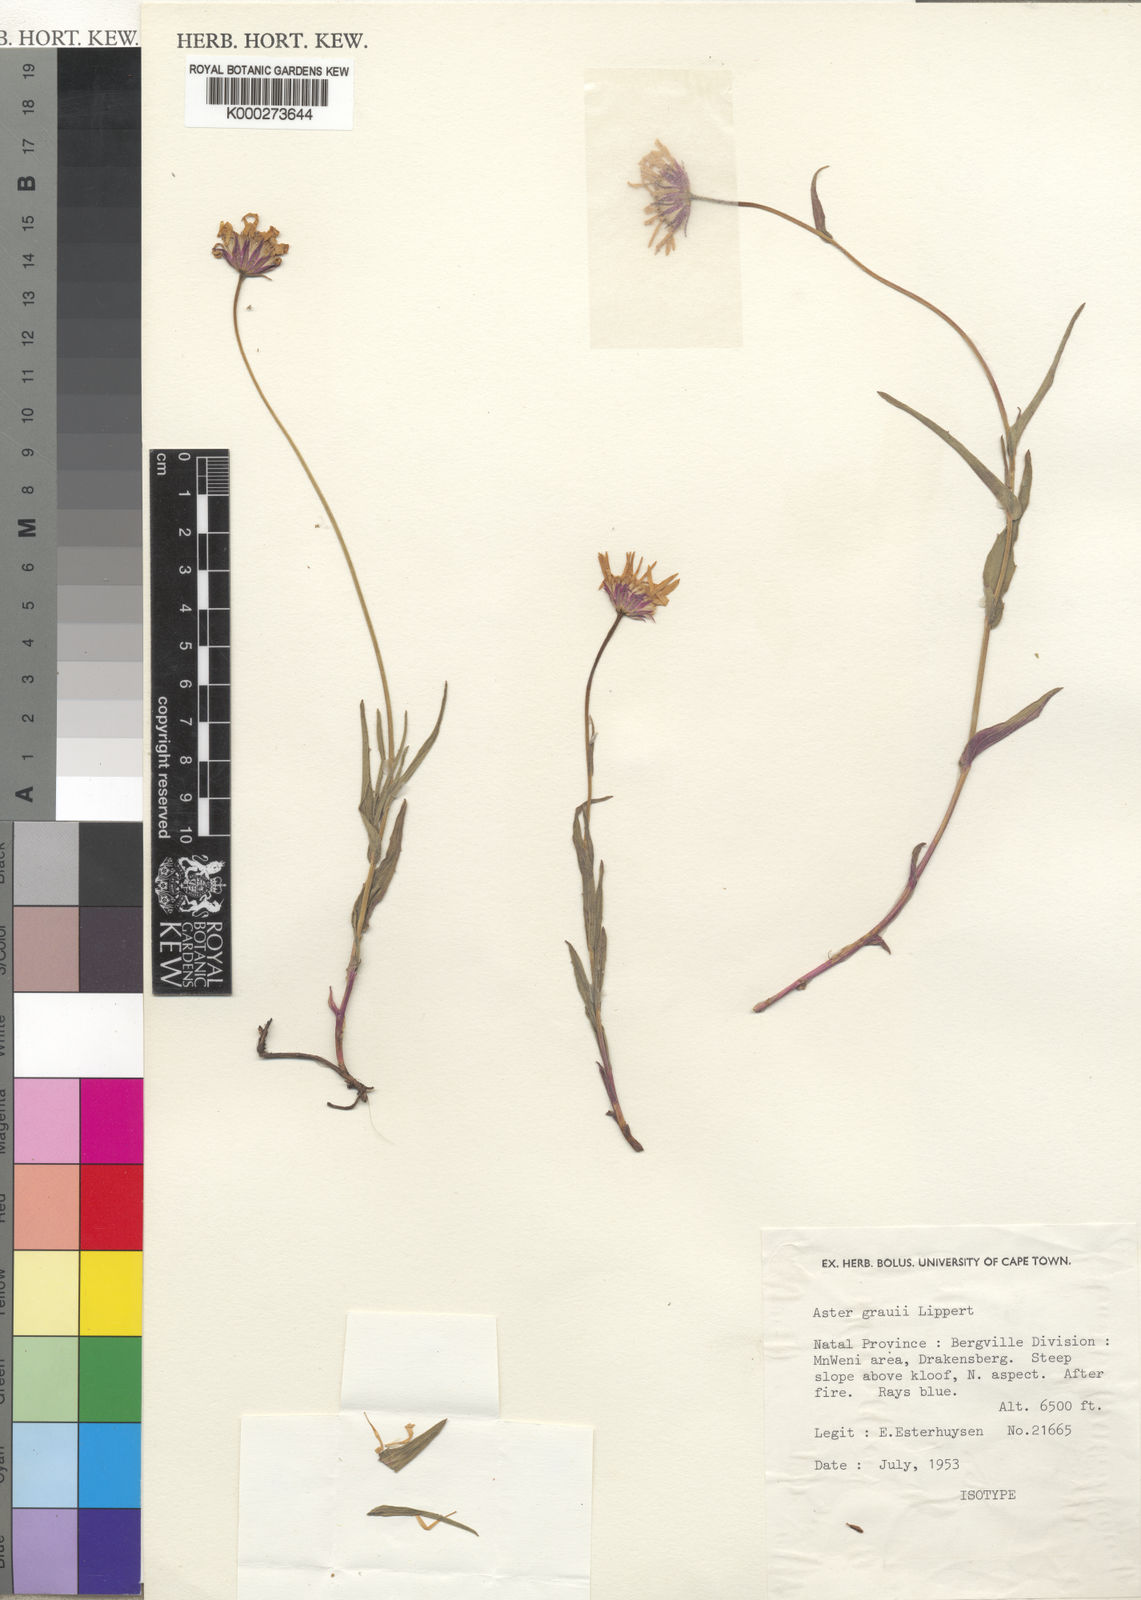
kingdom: Plantae
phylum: Tracheophyta
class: Magnoliopsida
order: Asterales
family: Asteraceae
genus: Afroaster
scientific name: Afroaster hispidus
